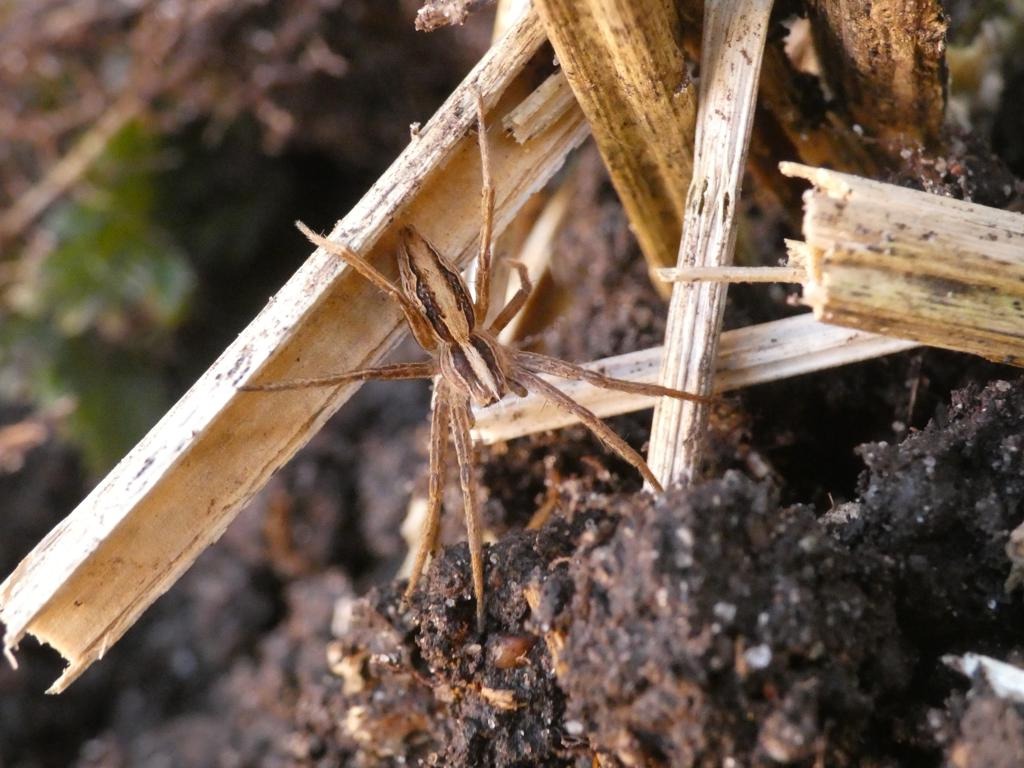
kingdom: Animalia
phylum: Arthropoda
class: Arachnida
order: Araneae
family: Pisauridae
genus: Pisaura
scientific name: Pisaura mirabilis
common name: Almindelig rovedderkop
